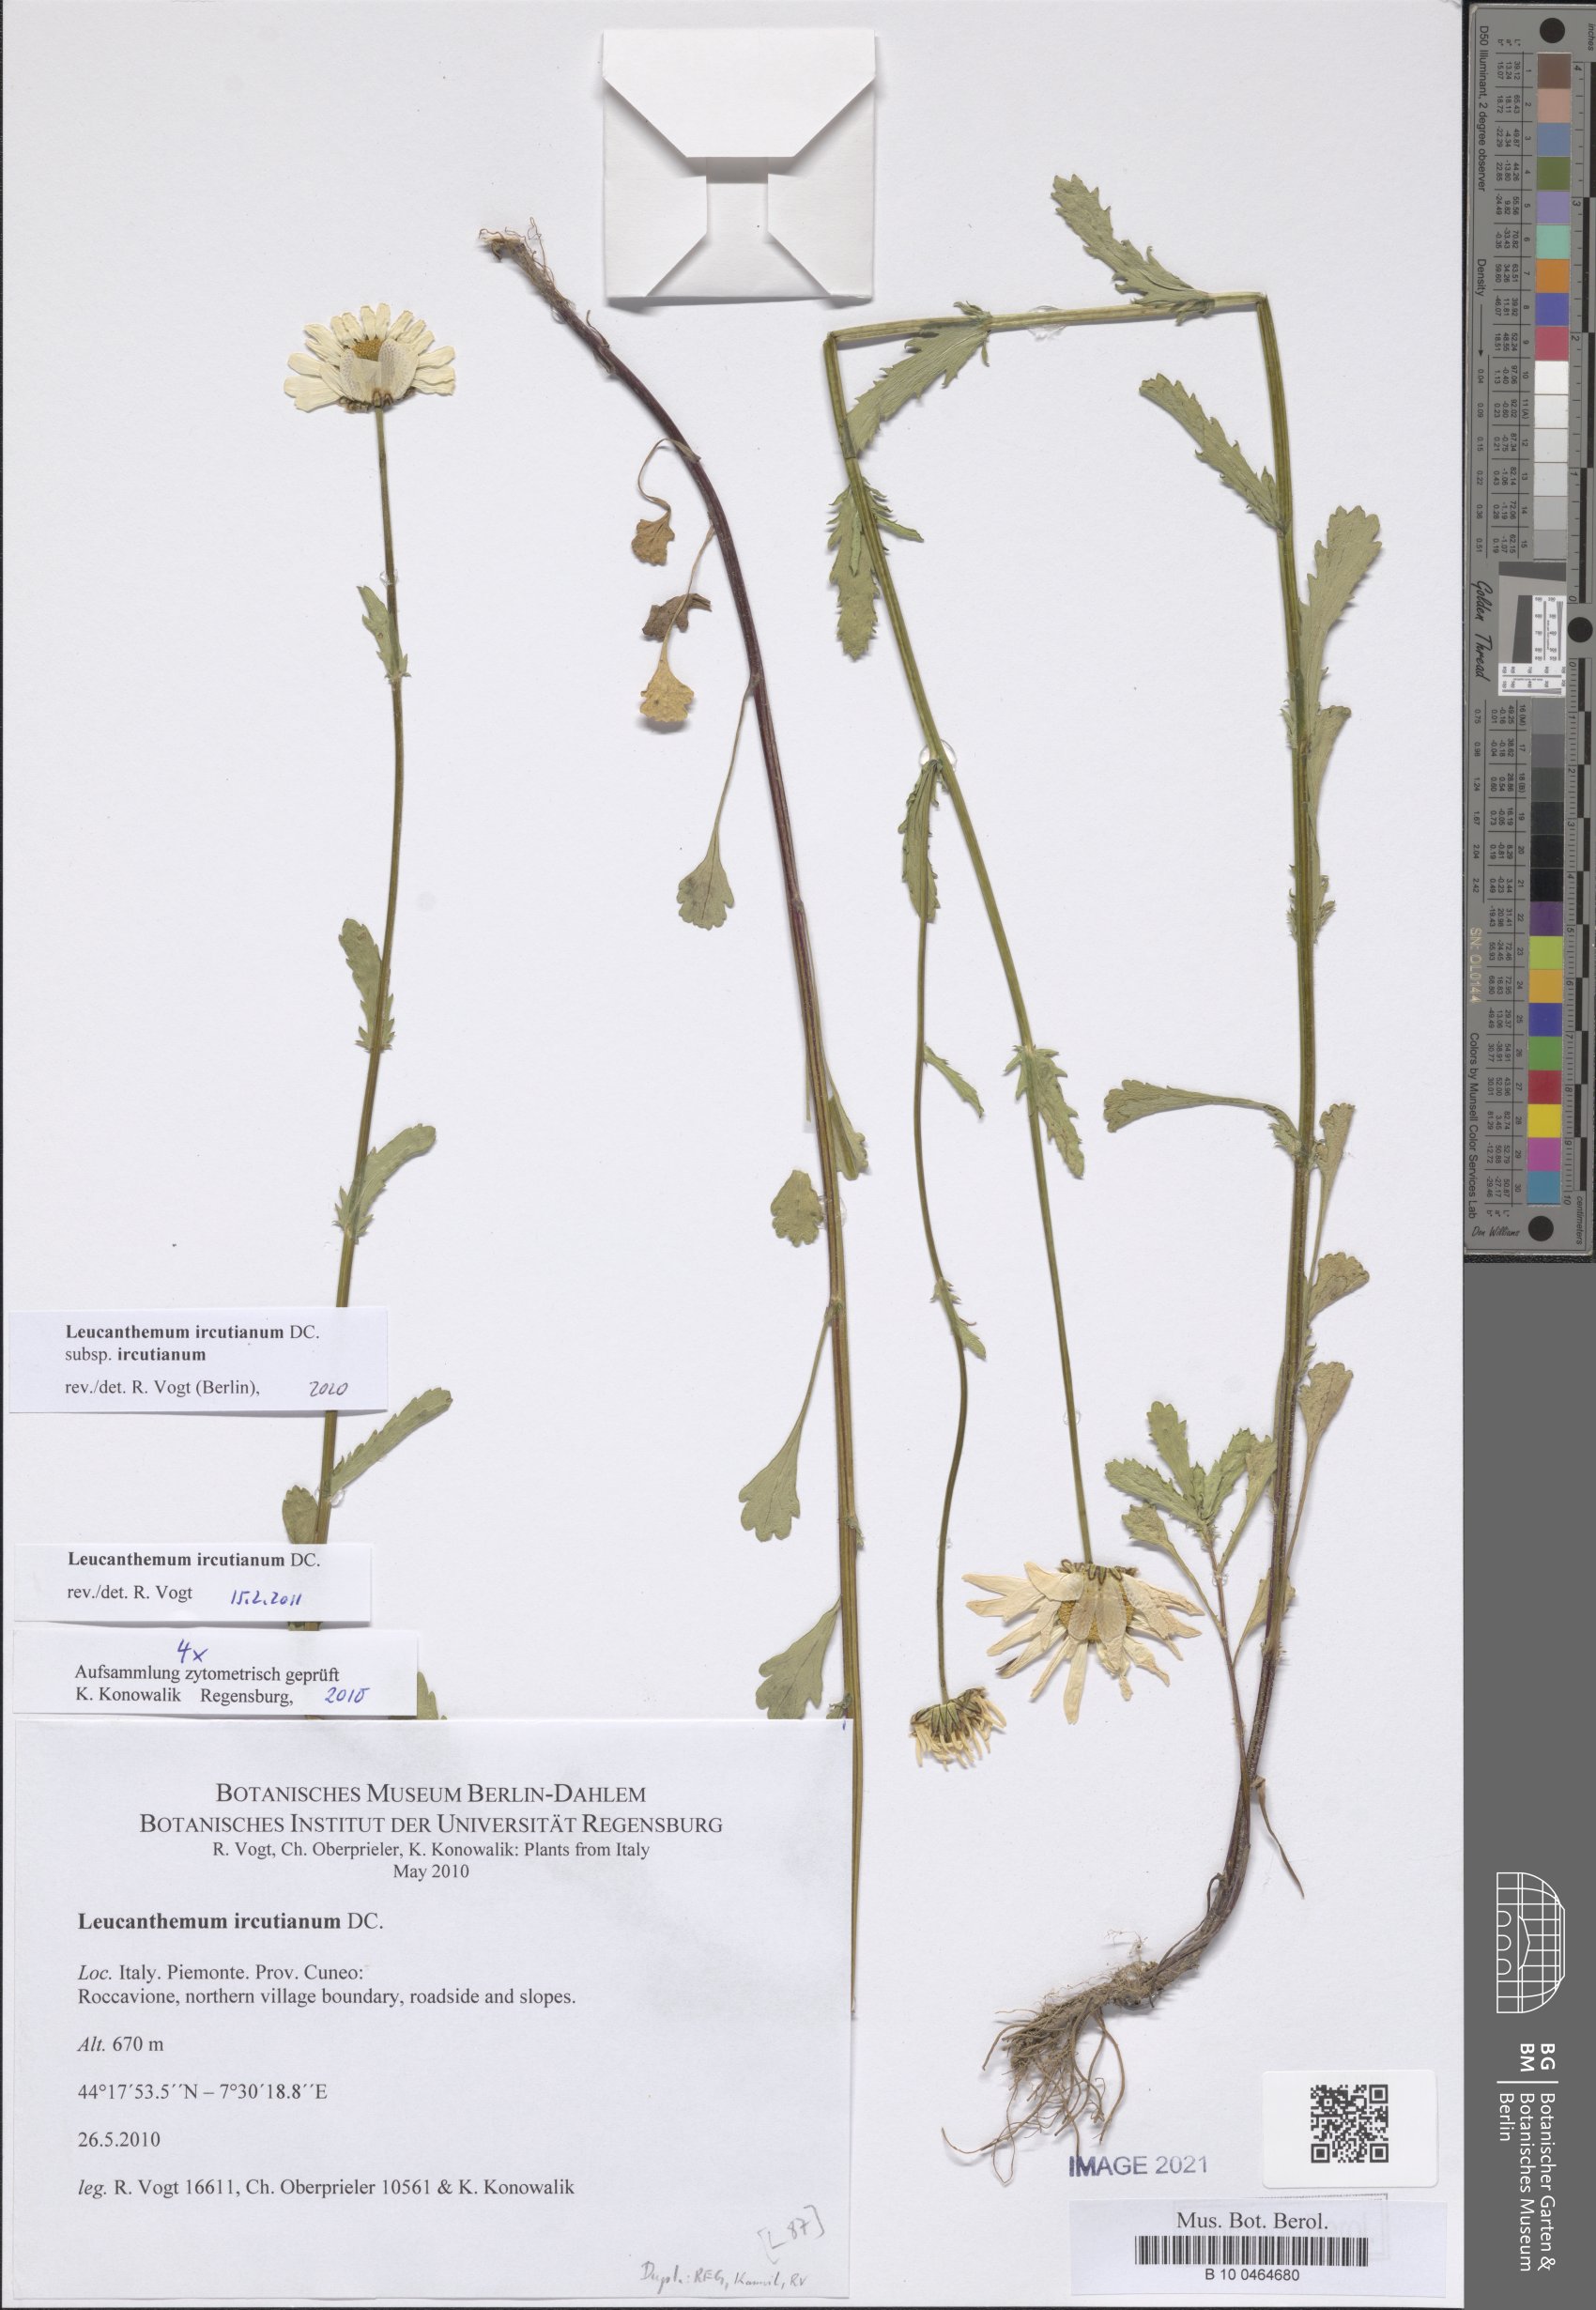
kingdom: Plantae
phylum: Tracheophyta
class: Magnoliopsida
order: Asterales
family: Asteraceae
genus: Leucanthemum
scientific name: Leucanthemum ircutianum
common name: Daisy
